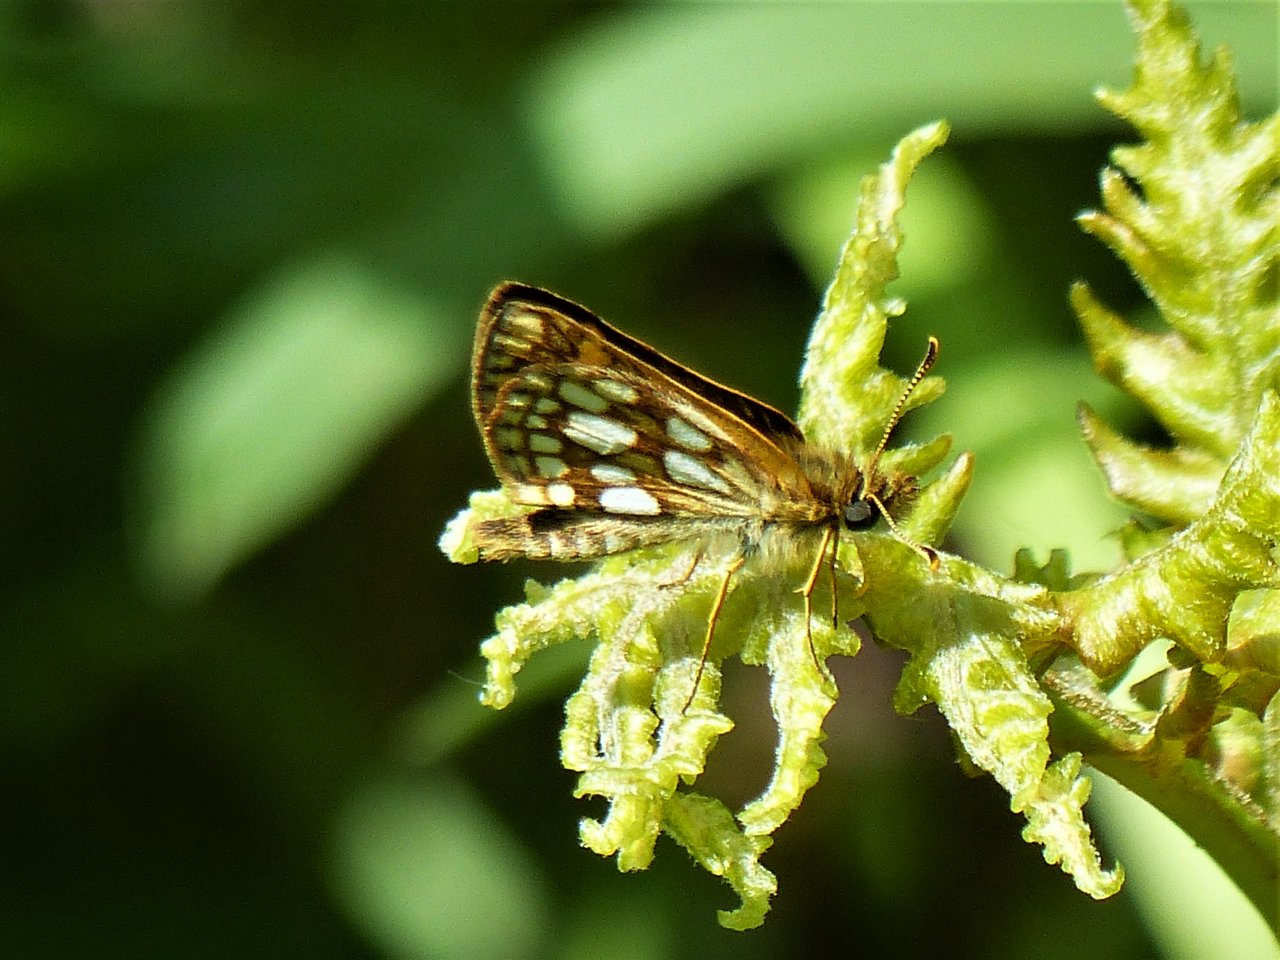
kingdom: Animalia
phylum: Arthropoda
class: Insecta
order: Lepidoptera
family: Hesperiidae
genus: Carterocephalus
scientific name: Carterocephalus palaemon
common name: Chequered Skipper
